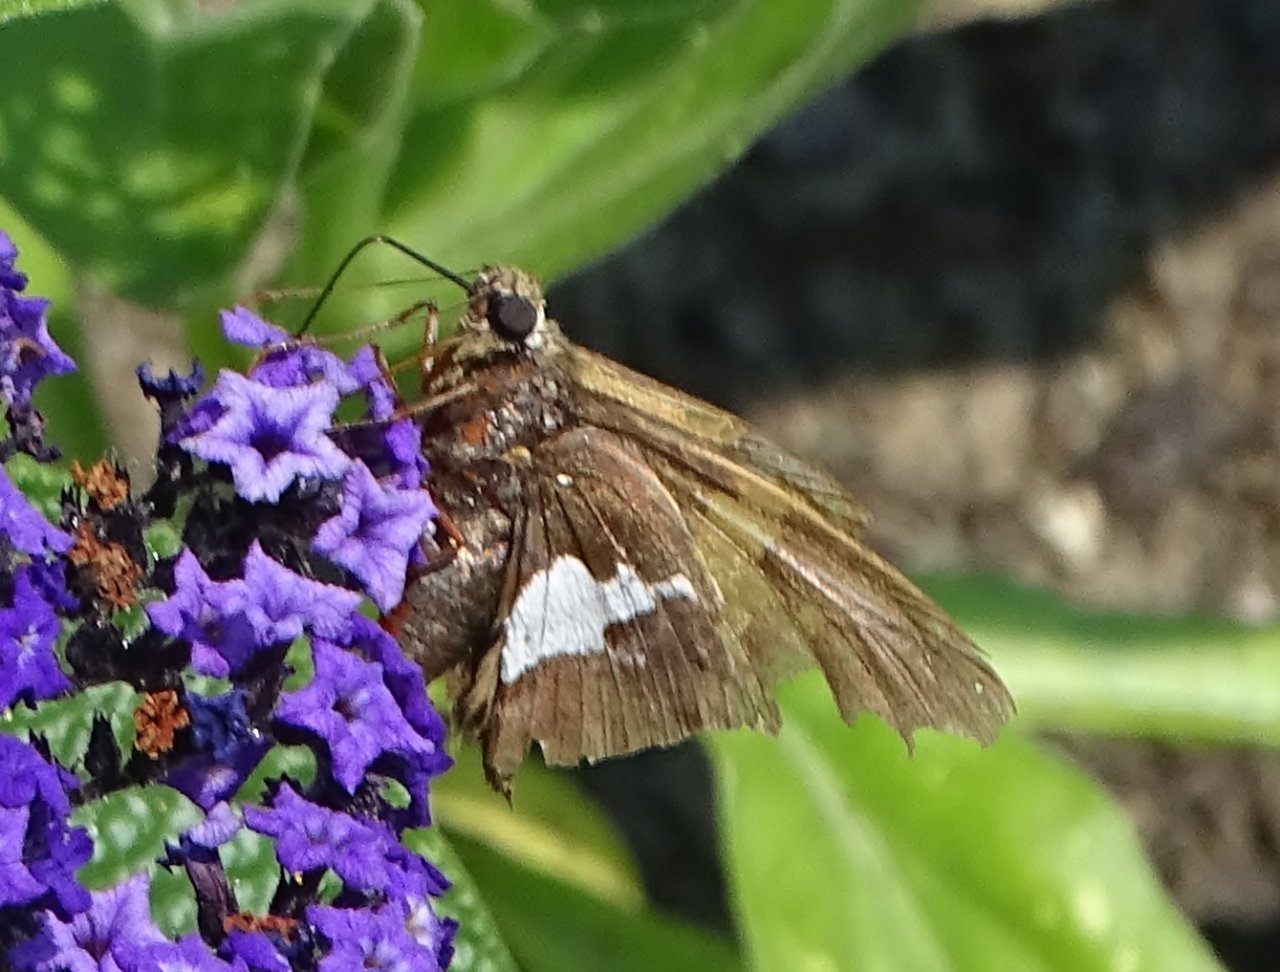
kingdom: Animalia
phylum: Arthropoda
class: Insecta
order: Lepidoptera
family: Hesperiidae
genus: Epargyreus
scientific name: Epargyreus clarus
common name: Silver-spotted Skipper
